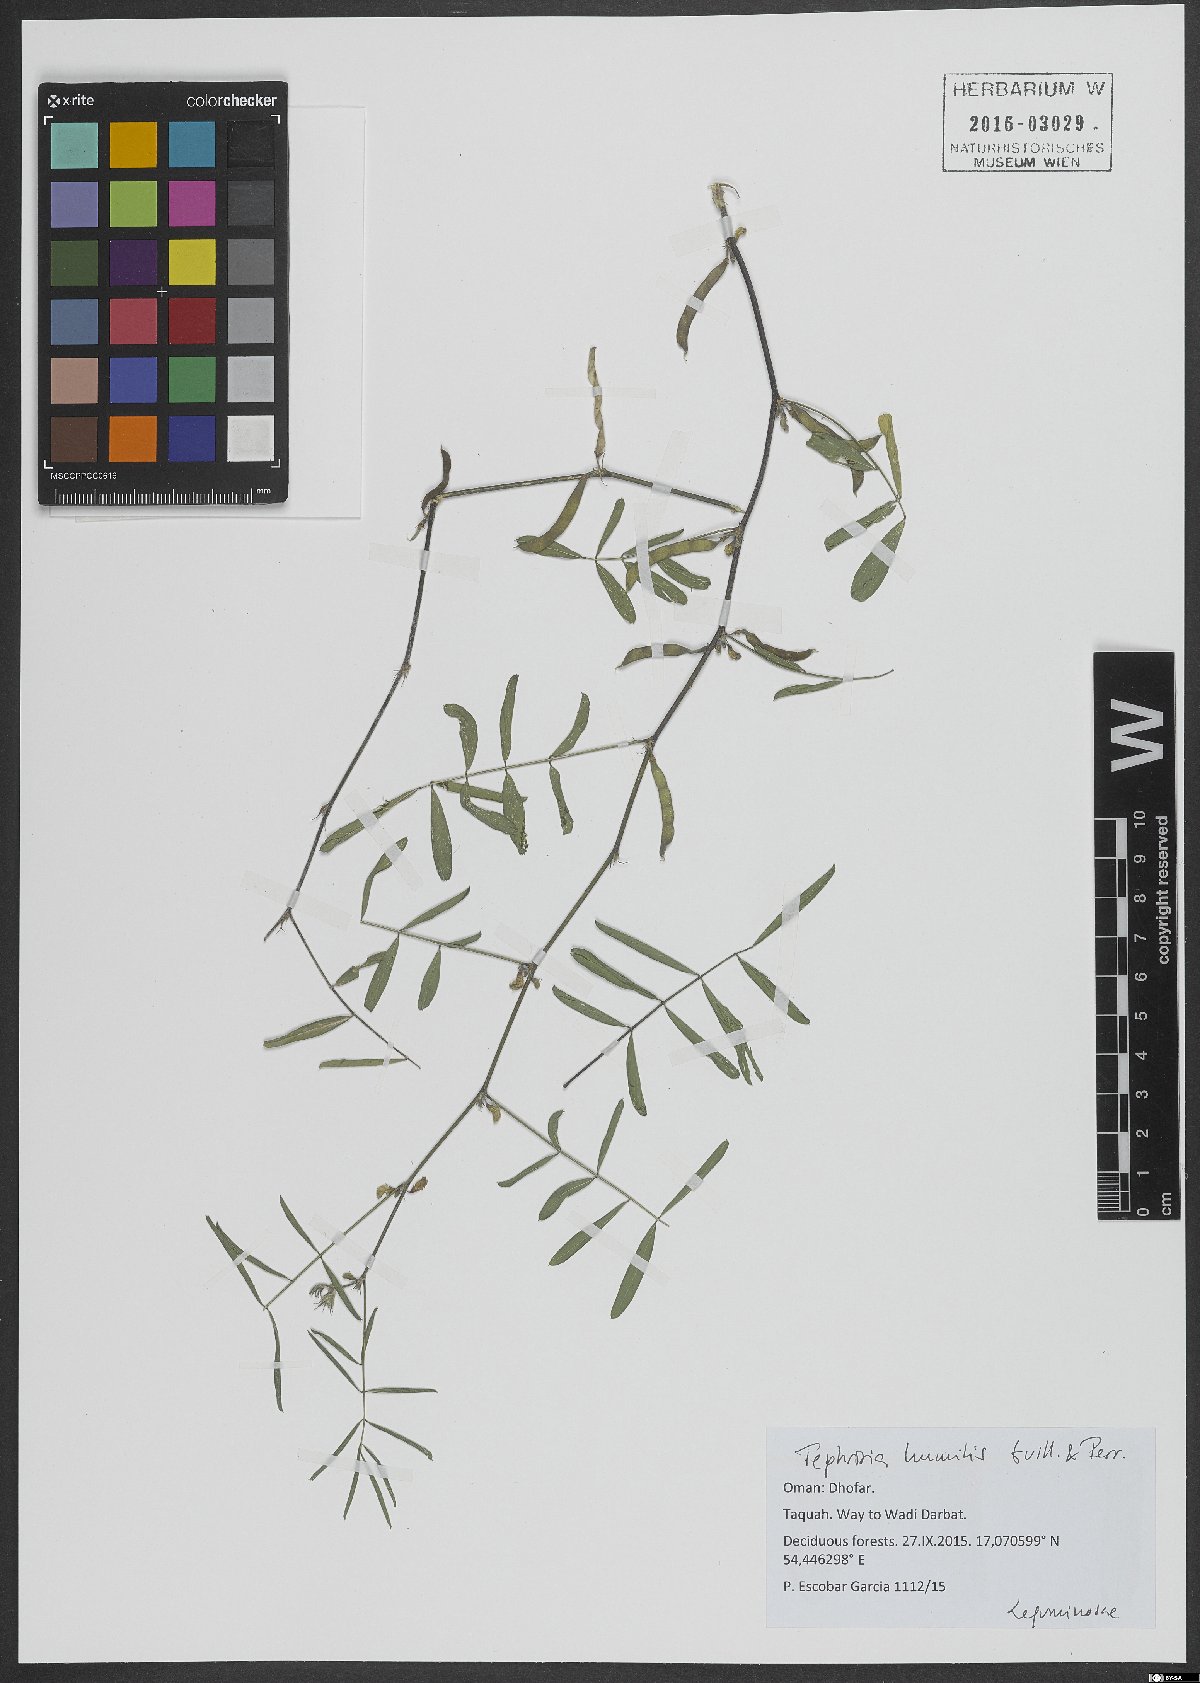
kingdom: Plantae
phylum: Tracheophyta
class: Magnoliopsida
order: Fabales
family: Fabaceae
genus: Tephrosia
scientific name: Tephrosia humilis
